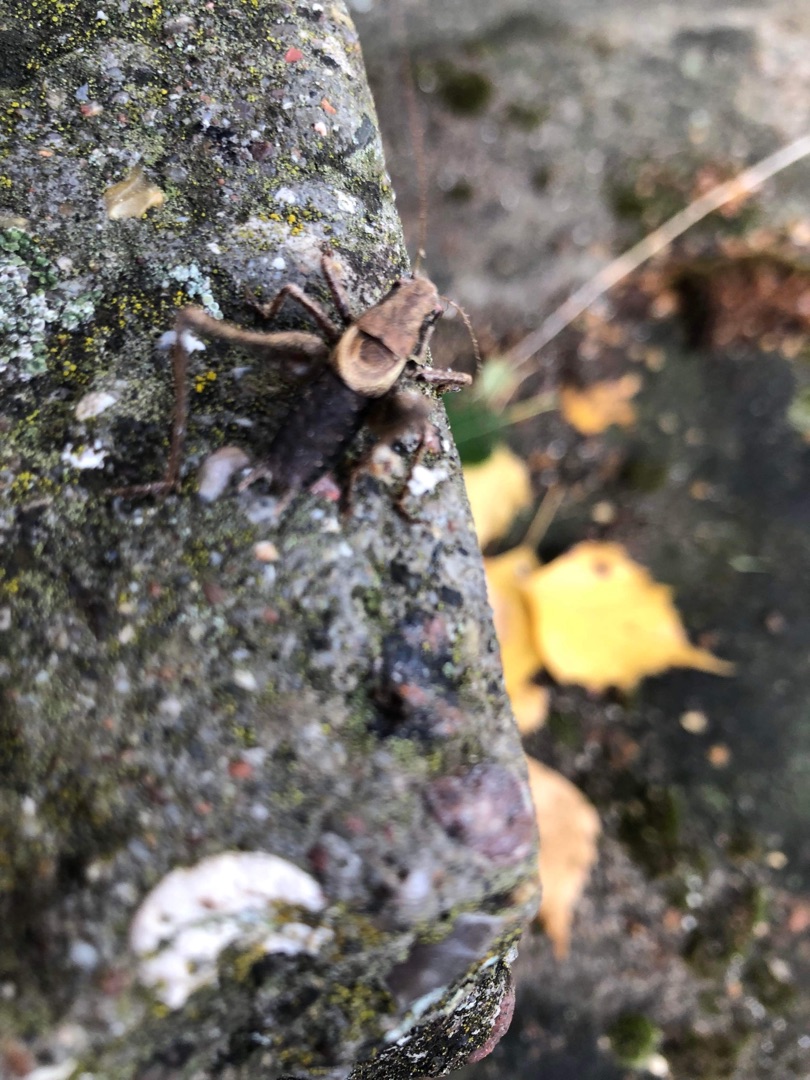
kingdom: Animalia
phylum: Arthropoda
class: Insecta
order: Orthoptera
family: Tettigoniidae
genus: Pholidoptera
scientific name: Pholidoptera griseoaptera
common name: Buskgræshoppe
